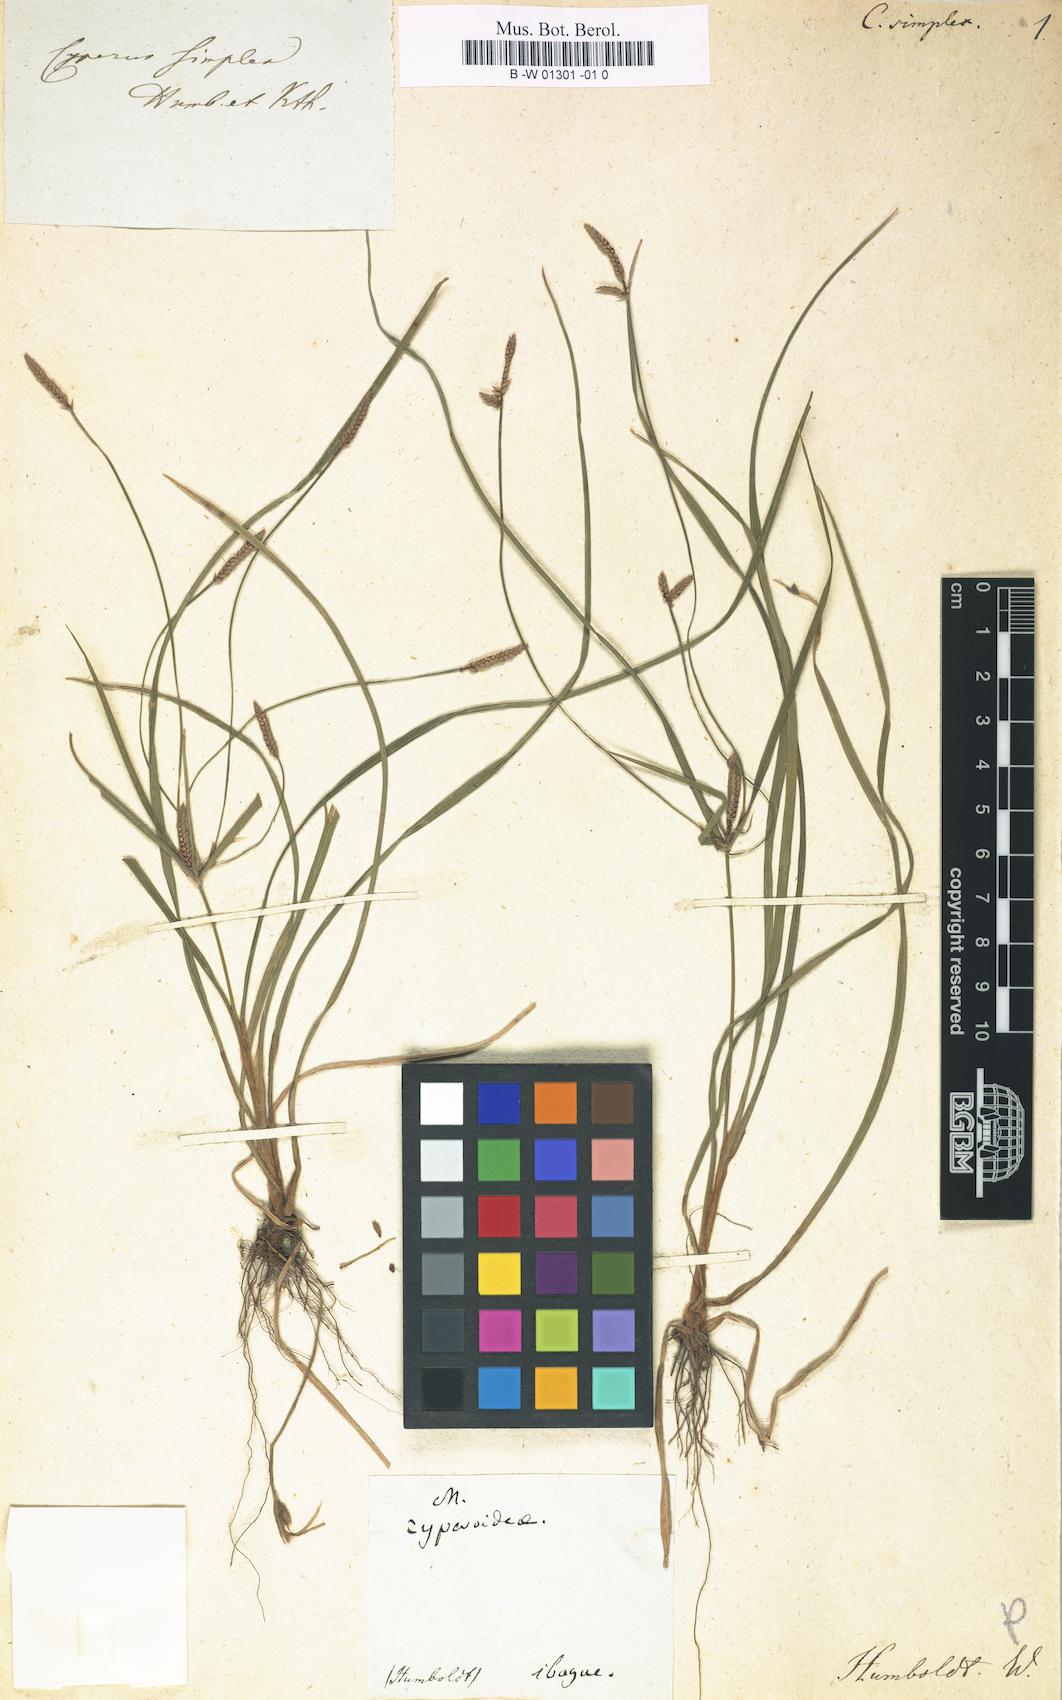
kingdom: Plantae
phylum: Tracheophyta
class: Liliopsida
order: Poales
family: Cyperaceae
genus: Cyperus
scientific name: Cyperus simplex
